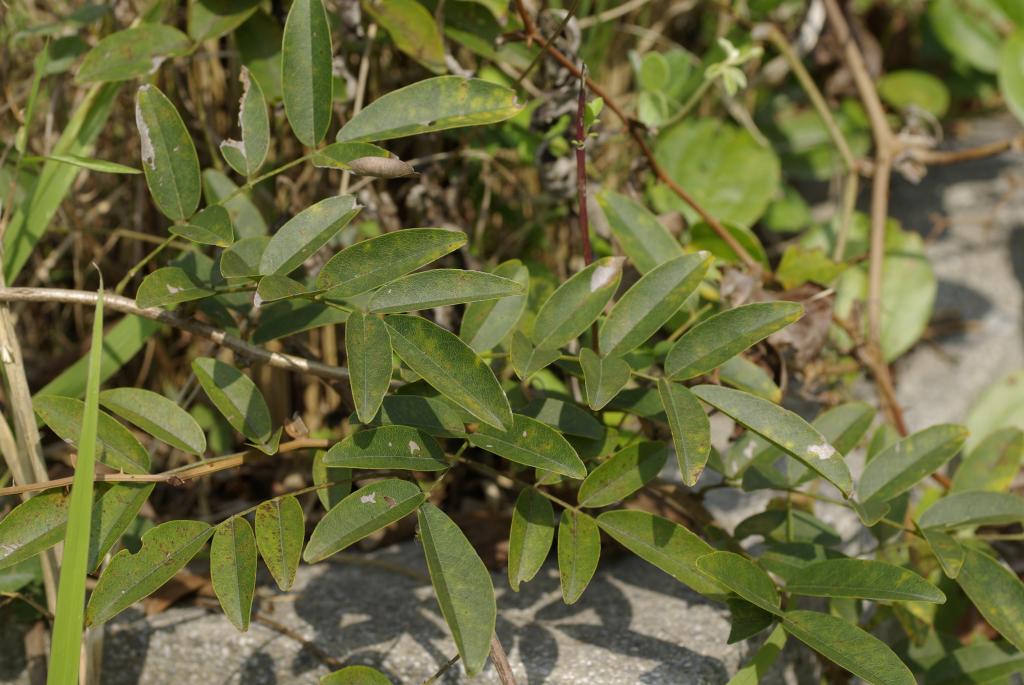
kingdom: Plantae
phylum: Tracheophyta
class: Magnoliopsida
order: Fabales
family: Fabaceae
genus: Wisteriopsis
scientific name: Wisteriopsis reticulata
